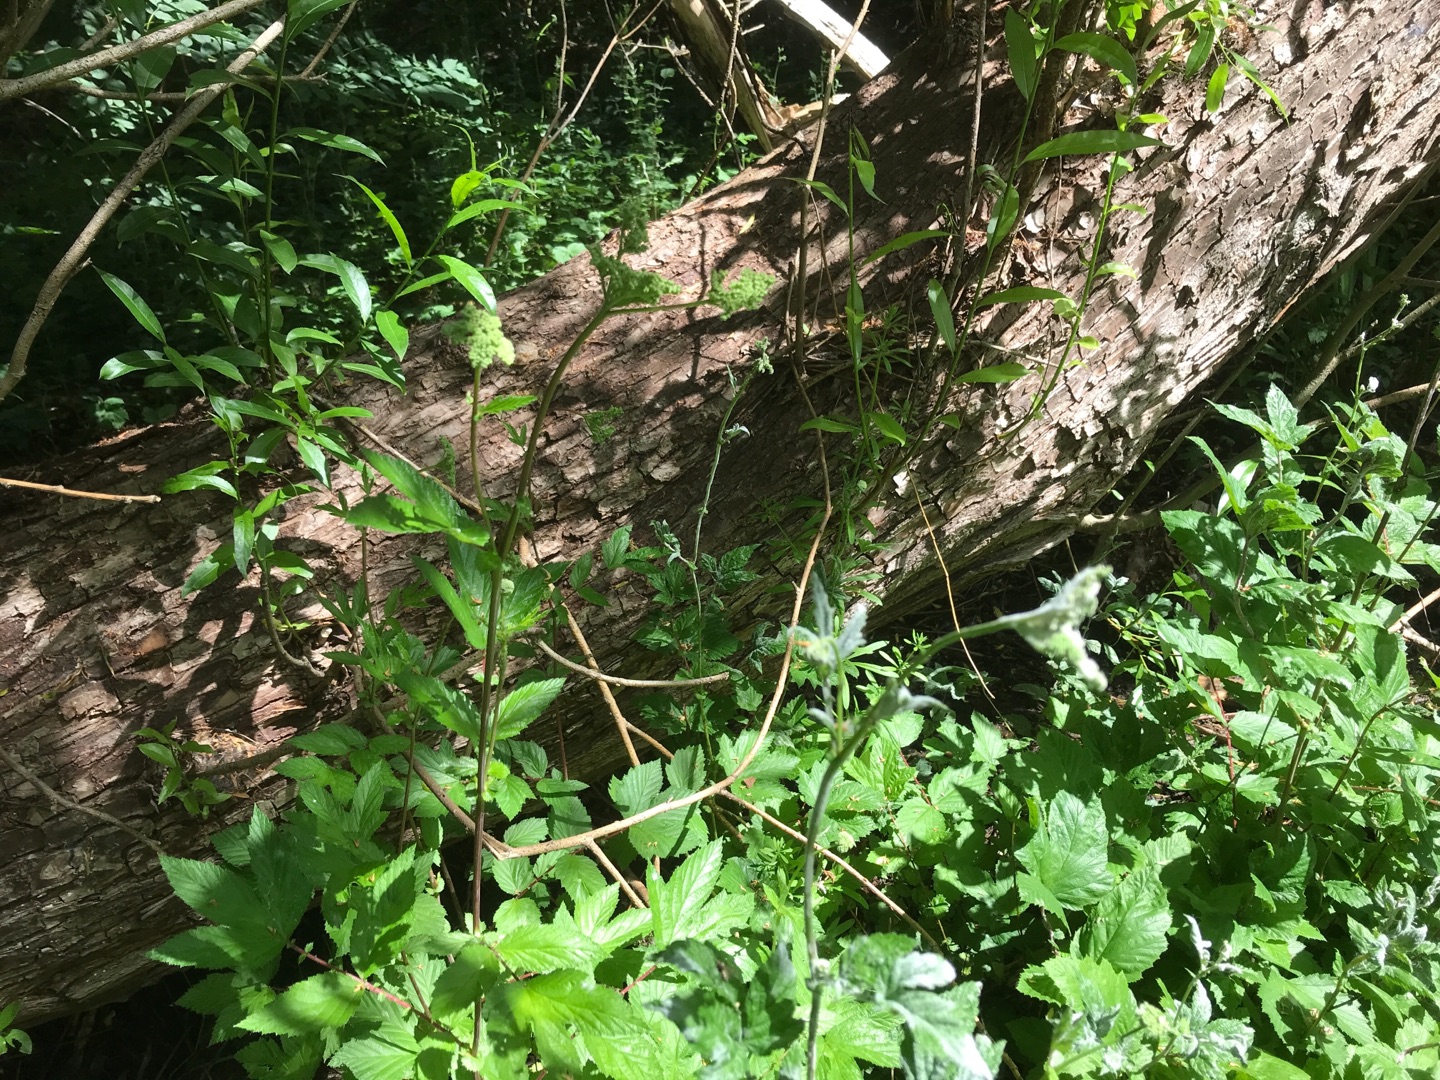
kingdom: Plantae
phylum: Tracheophyta
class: Magnoliopsida
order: Rosales
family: Rosaceae
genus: Filipendula
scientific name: Filipendula ulmaria
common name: Almindelig mjødurt
